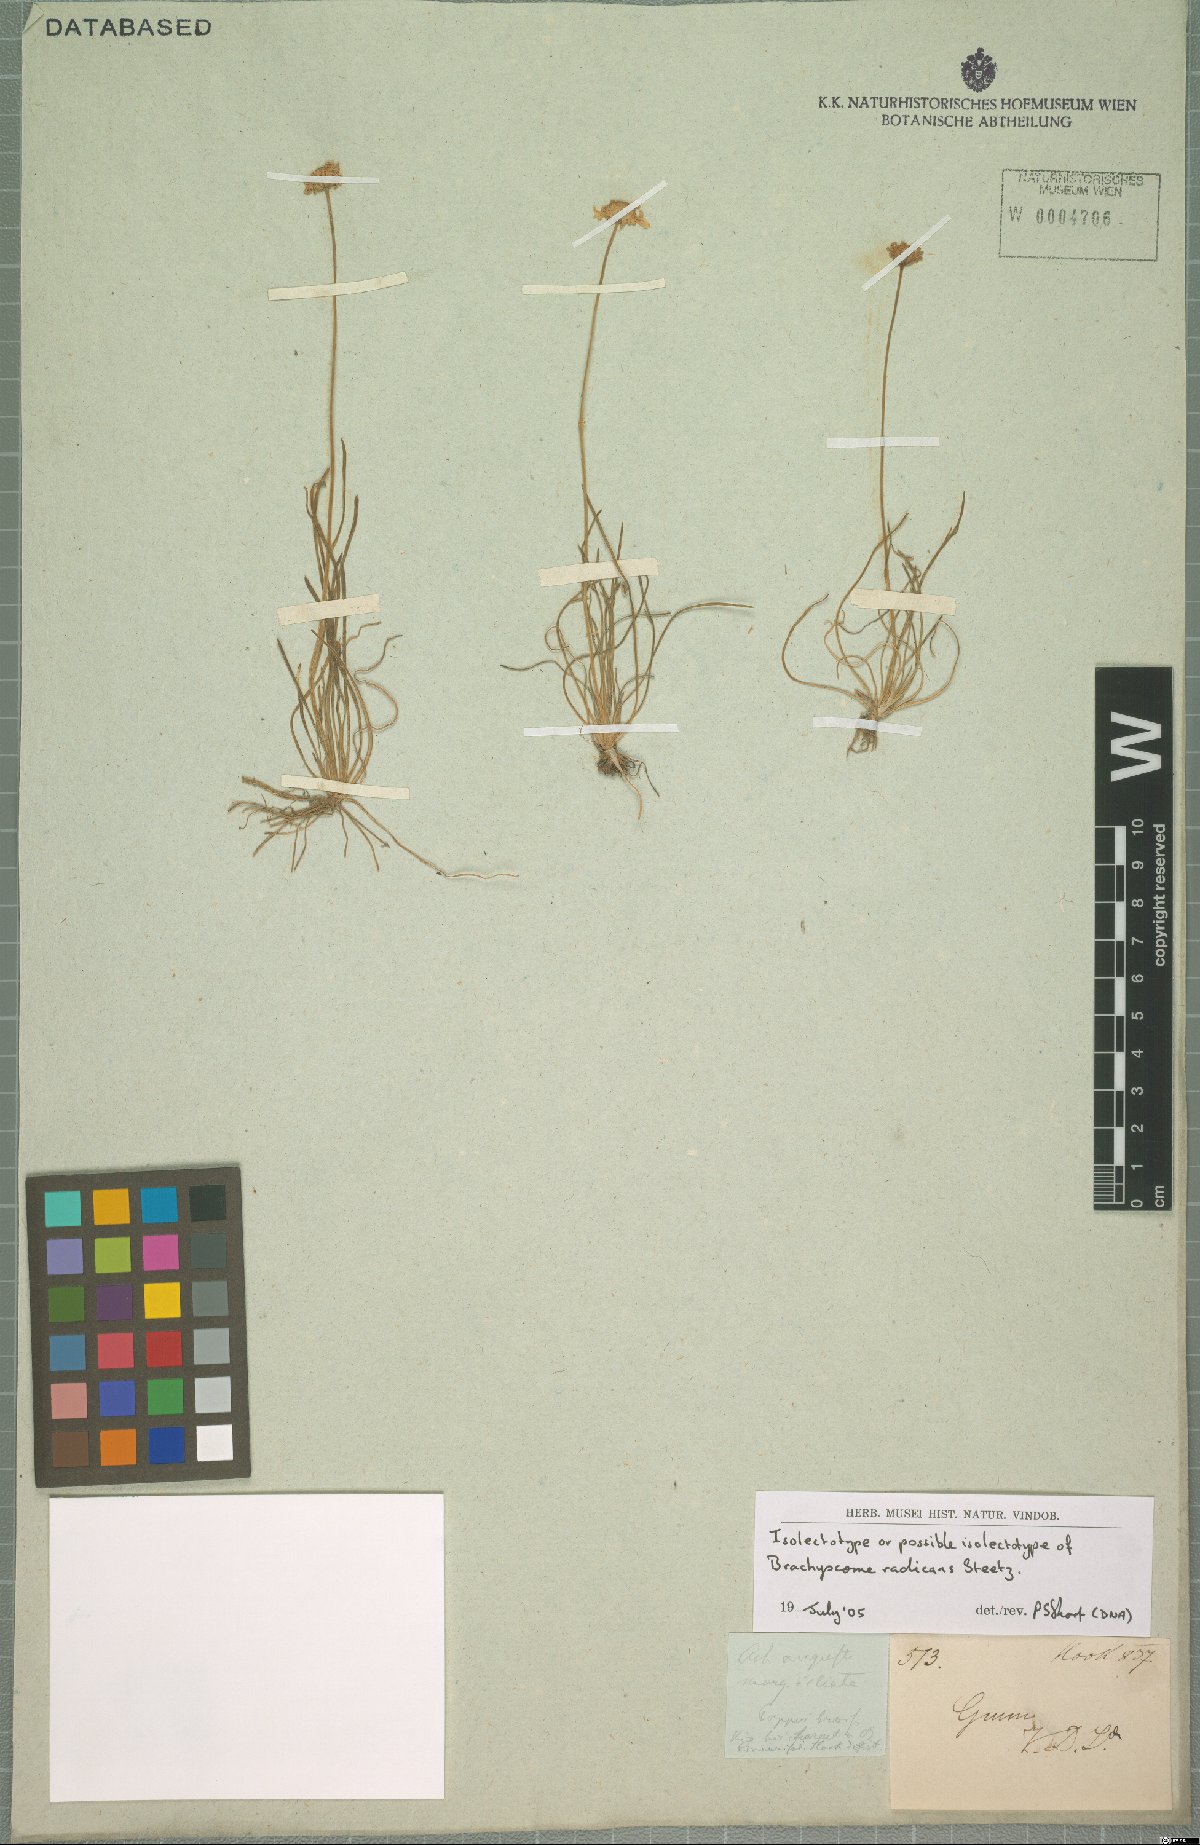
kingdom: Plantae
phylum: Tracheophyta
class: Magnoliopsida
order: Asterales
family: Asteraceae
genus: Brachyscome
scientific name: Brachyscome radicans
